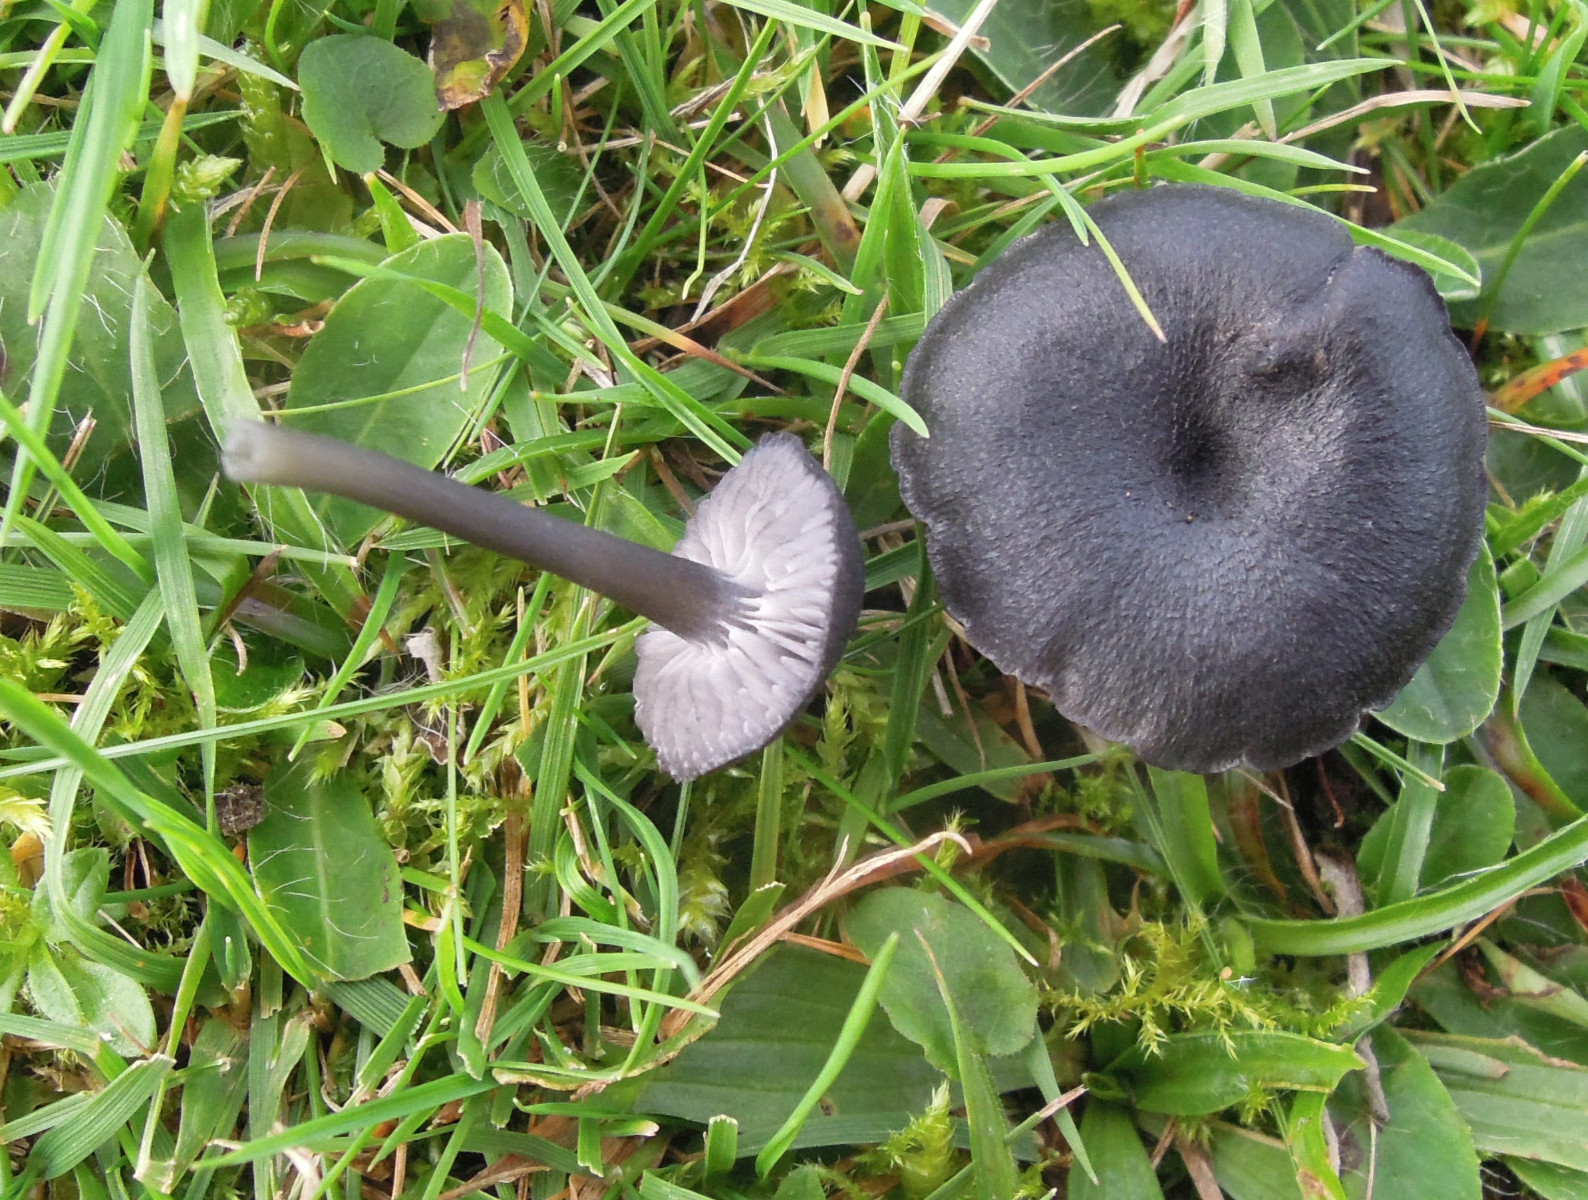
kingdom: Fungi
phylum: Basidiomycota
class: Agaricomycetes
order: Agaricales
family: Entolomataceae
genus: Entoloma
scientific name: Entoloma
